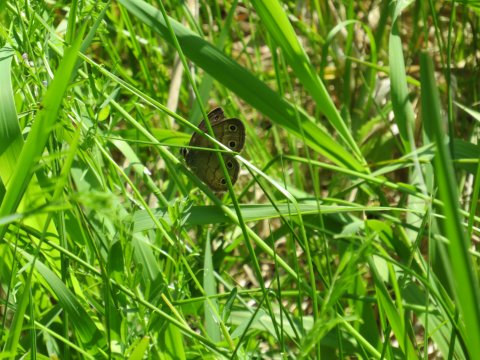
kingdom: Animalia
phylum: Arthropoda
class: Insecta
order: Lepidoptera
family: Nymphalidae
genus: Euptychia
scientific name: Euptychia cymela
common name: Little Wood Satyr
